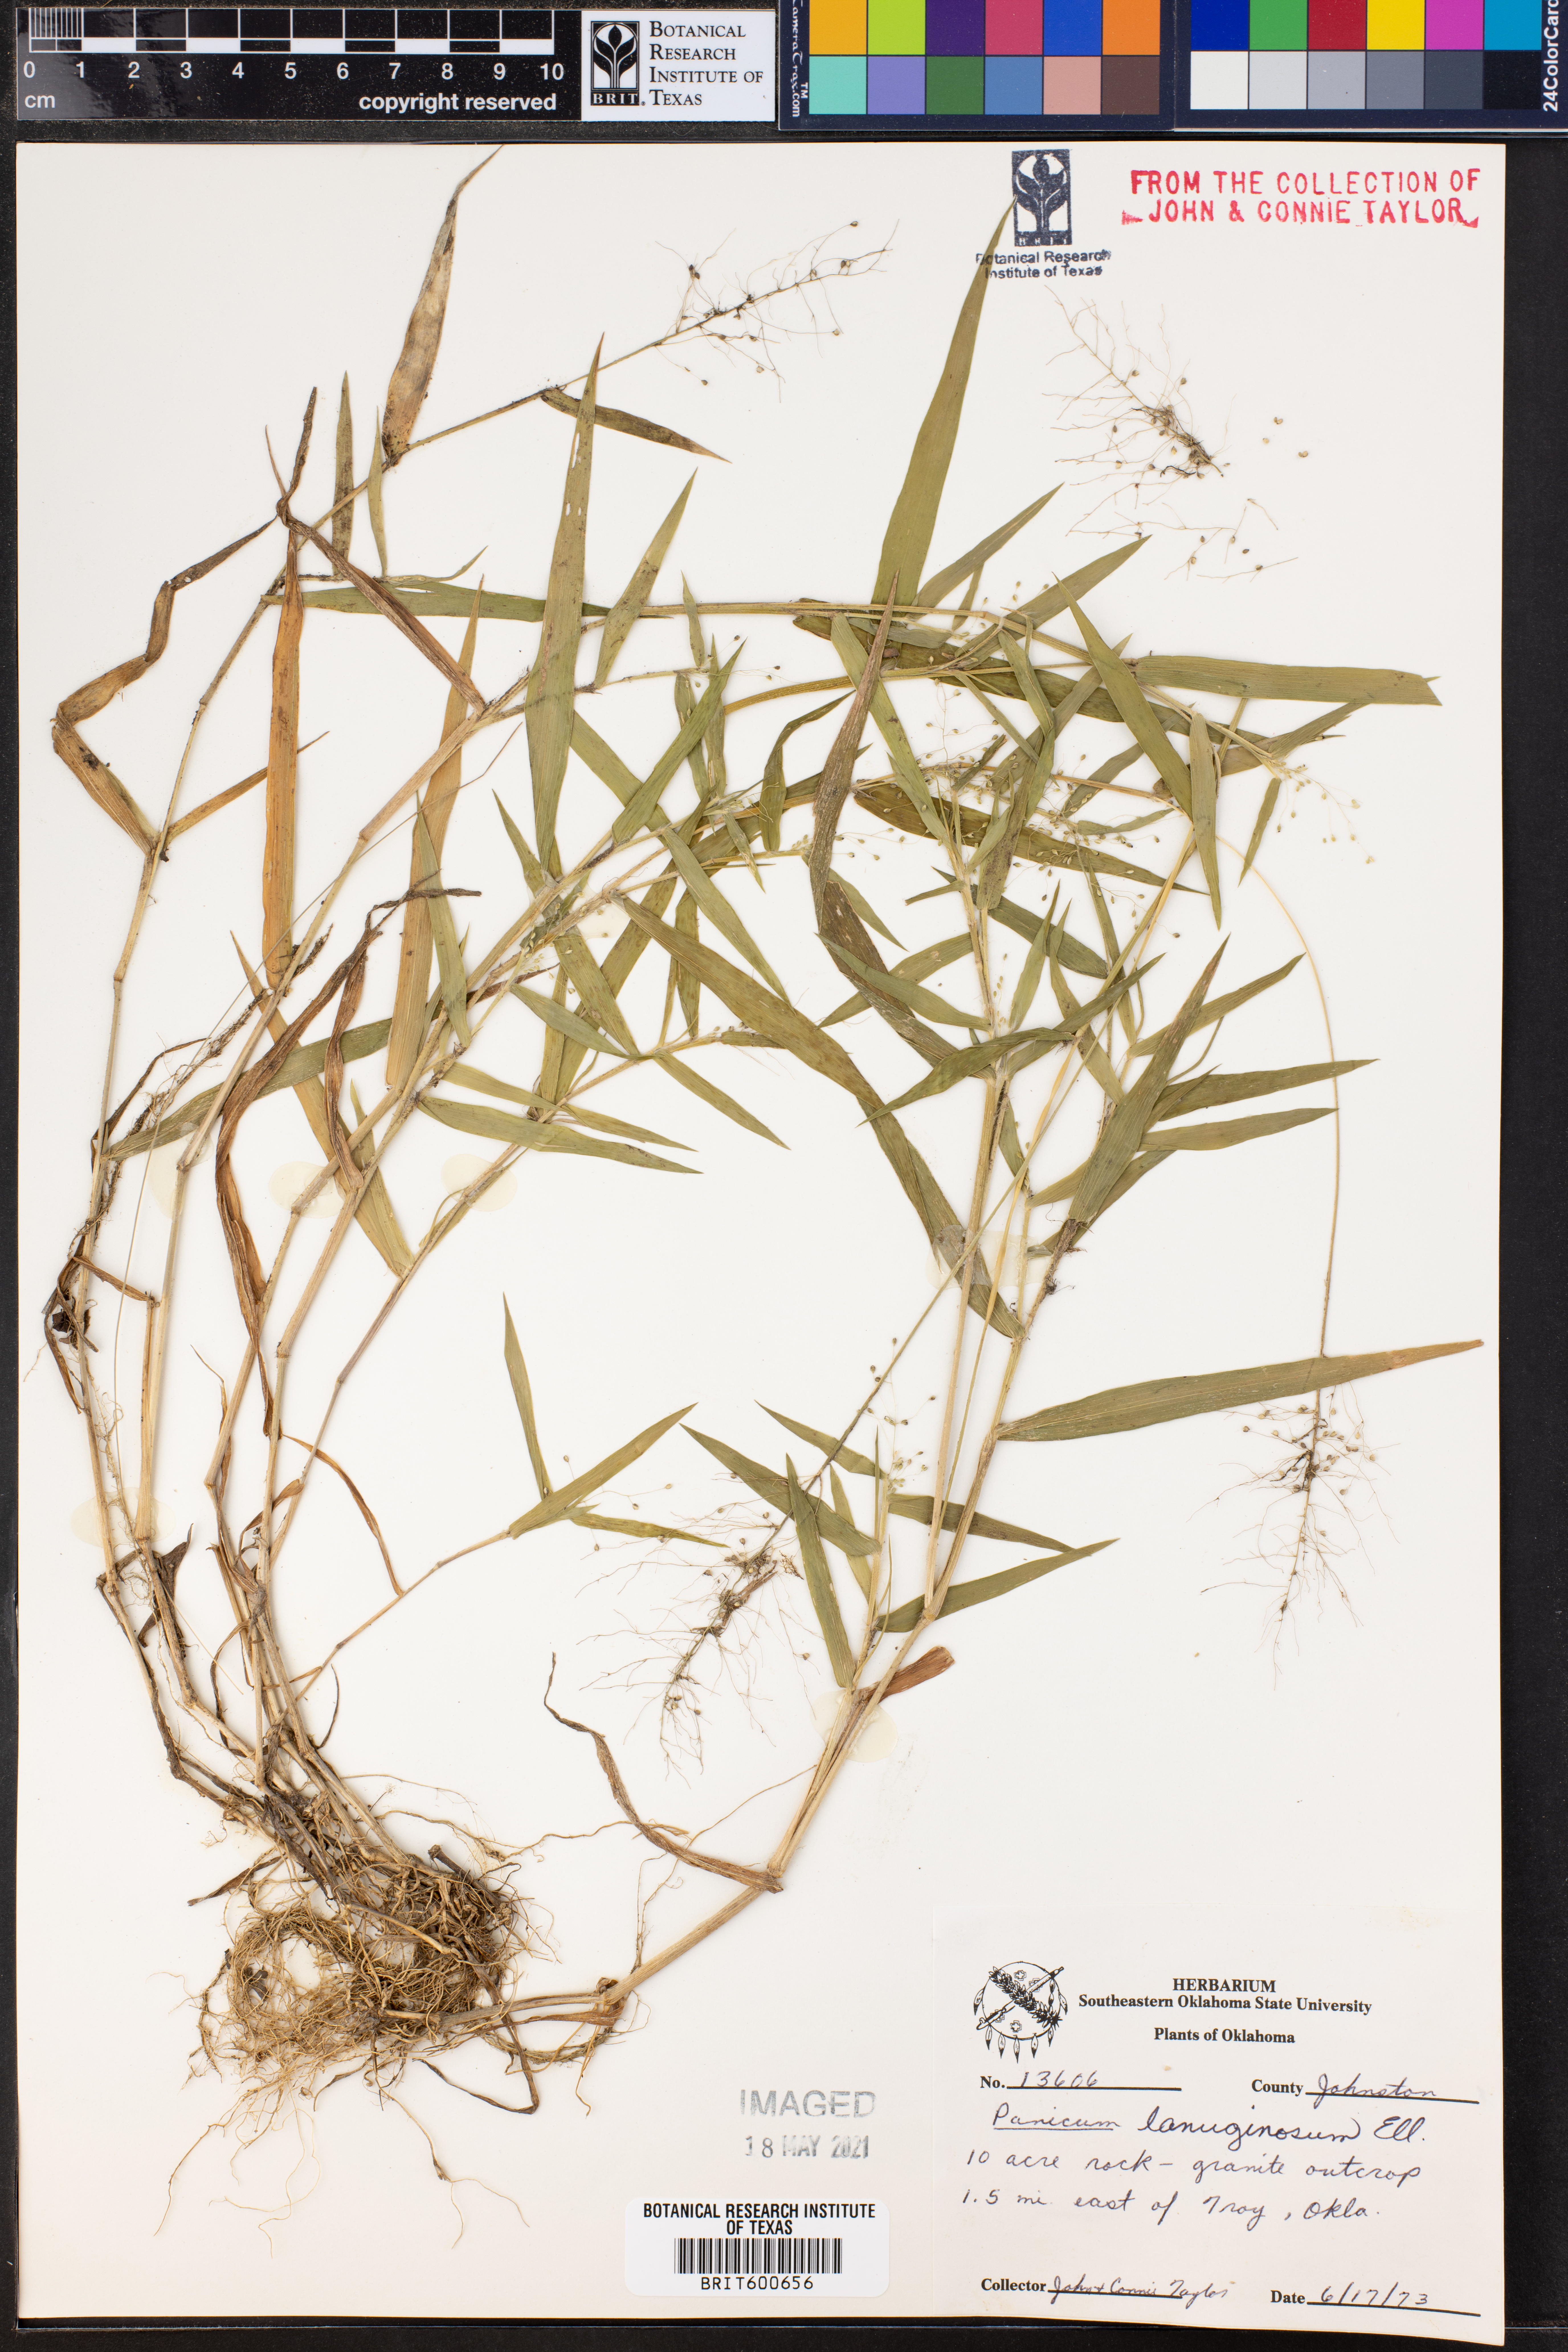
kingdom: Plantae
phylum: Tracheophyta
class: Liliopsida
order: Poales
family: Poaceae
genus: Dichanthelium
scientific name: Dichanthelium lanuginosum
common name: Woolly panicgrass
